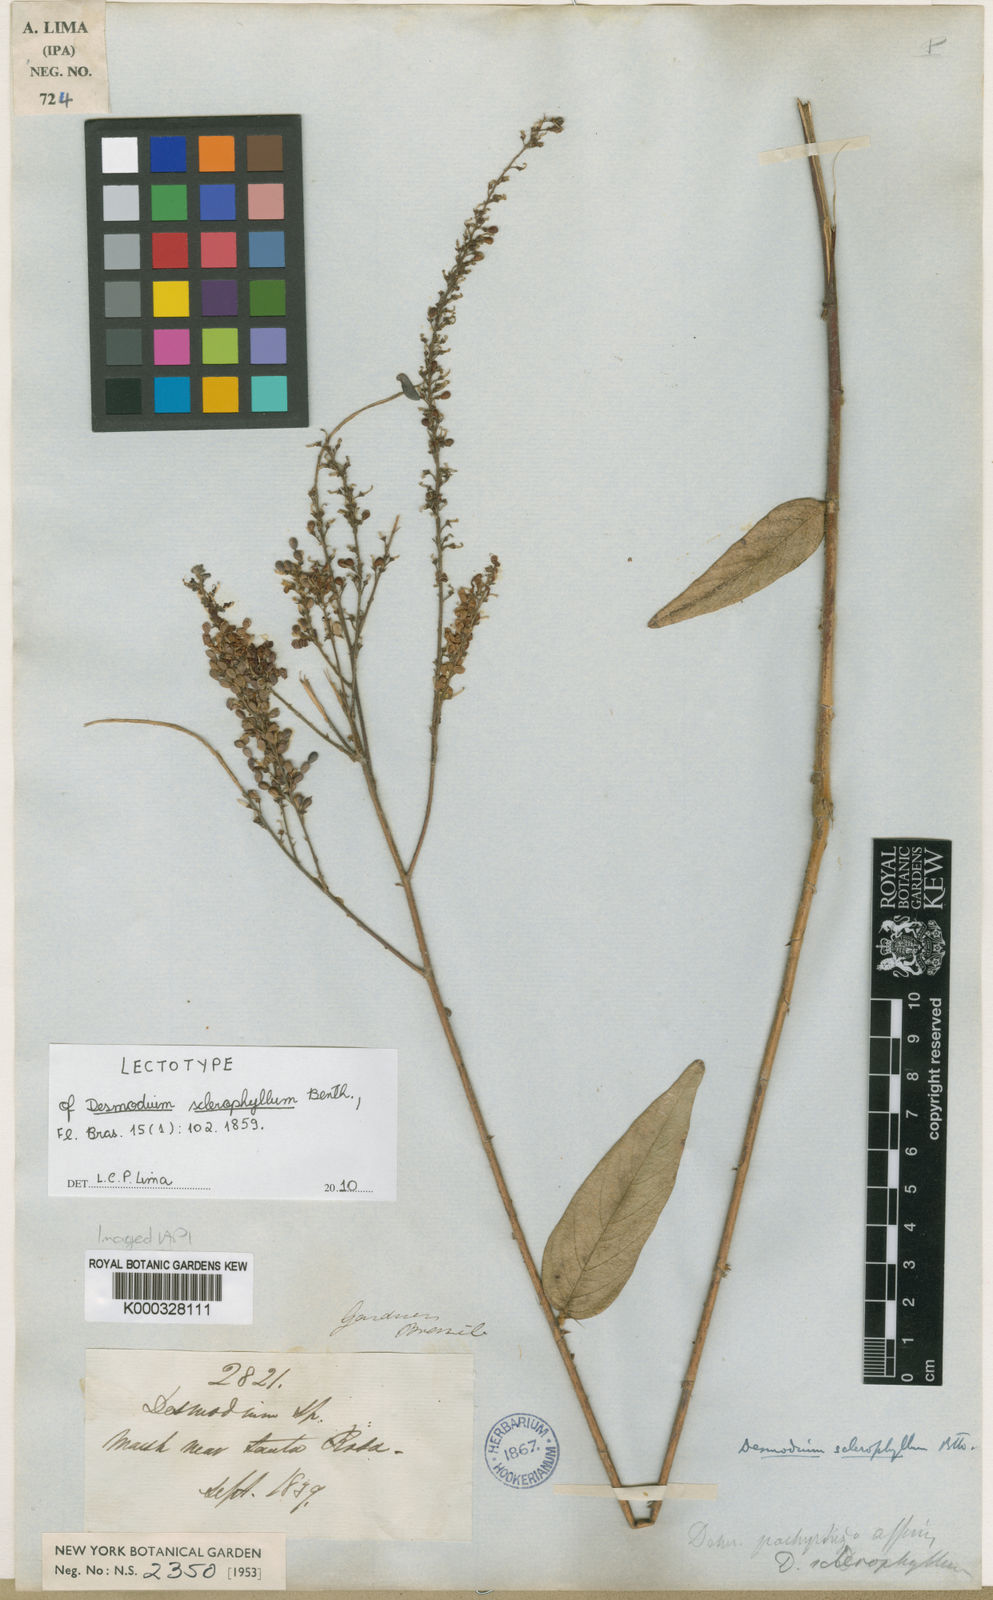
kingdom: Plantae
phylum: Tracheophyta
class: Magnoliopsida
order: Fabales
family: Fabaceae
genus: Desmodium
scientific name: Desmodium sclerophyllum
